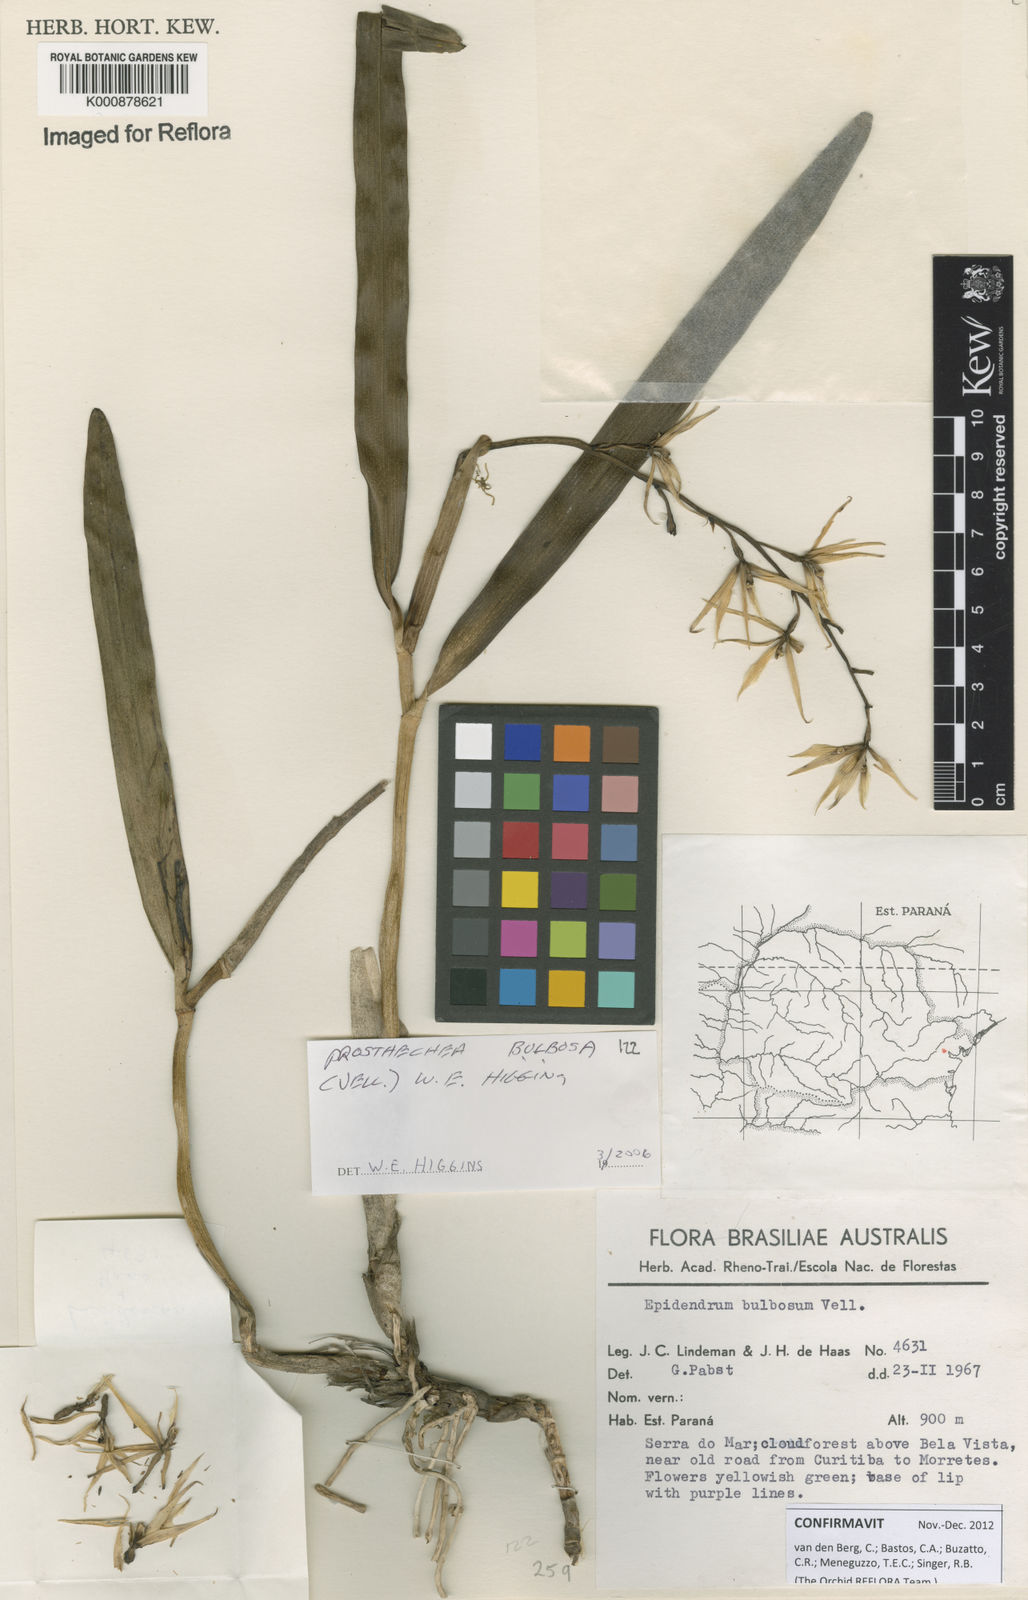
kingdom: Plantae
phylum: Tracheophyta
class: Liliopsida
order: Asparagales
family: Orchidaceae
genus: Prosthechea
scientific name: Prosthechea bulbosa
